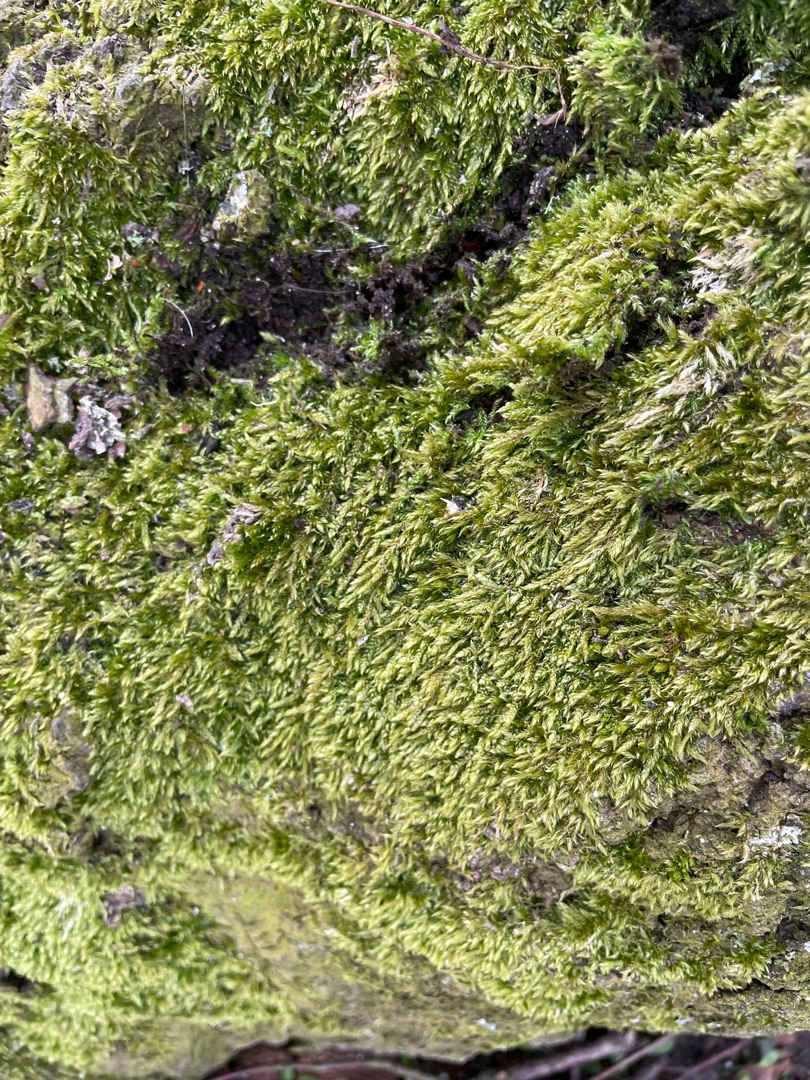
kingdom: Plantae
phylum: Bryophyta
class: Bryopsida
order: Hypnales
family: Hypnaceae
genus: Hypnum
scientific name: Hypnum
